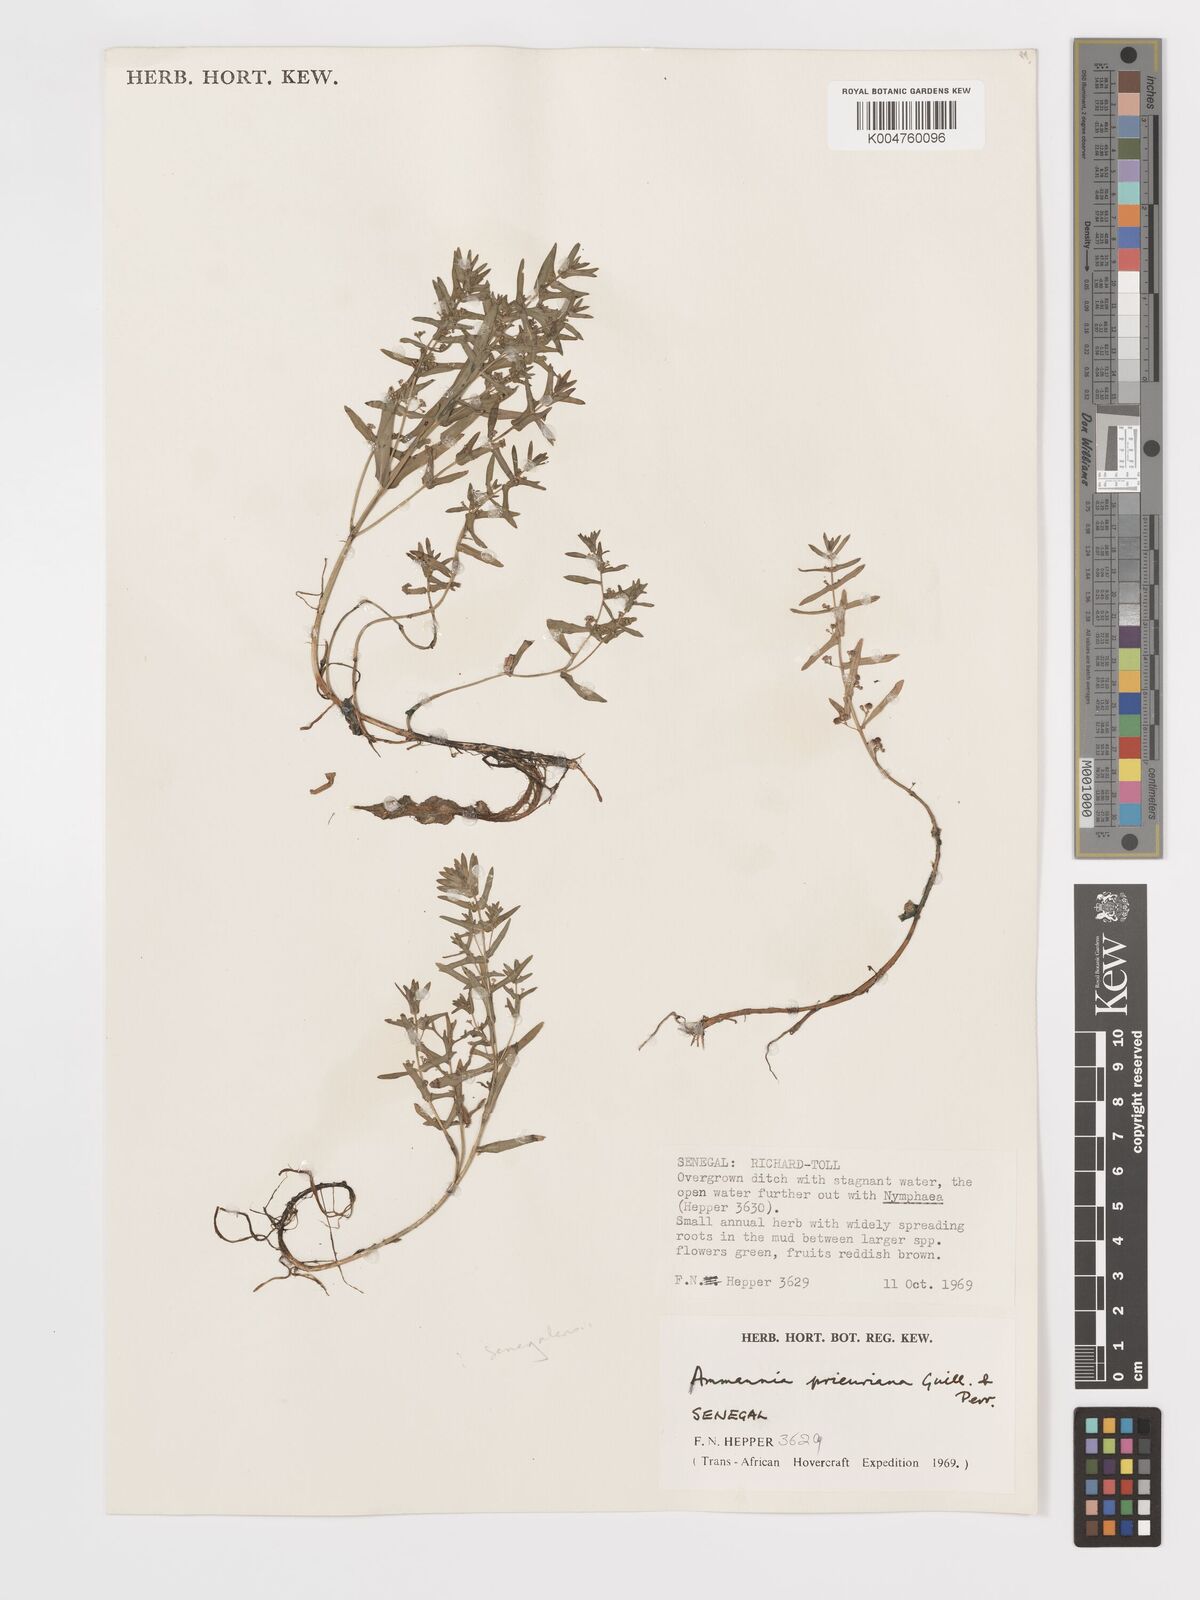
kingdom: Plantae
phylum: Tracheophyta
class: Magnoliopsida
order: Myrtales
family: Lythraceae
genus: Ammannia
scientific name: Ammannia prieuriana
